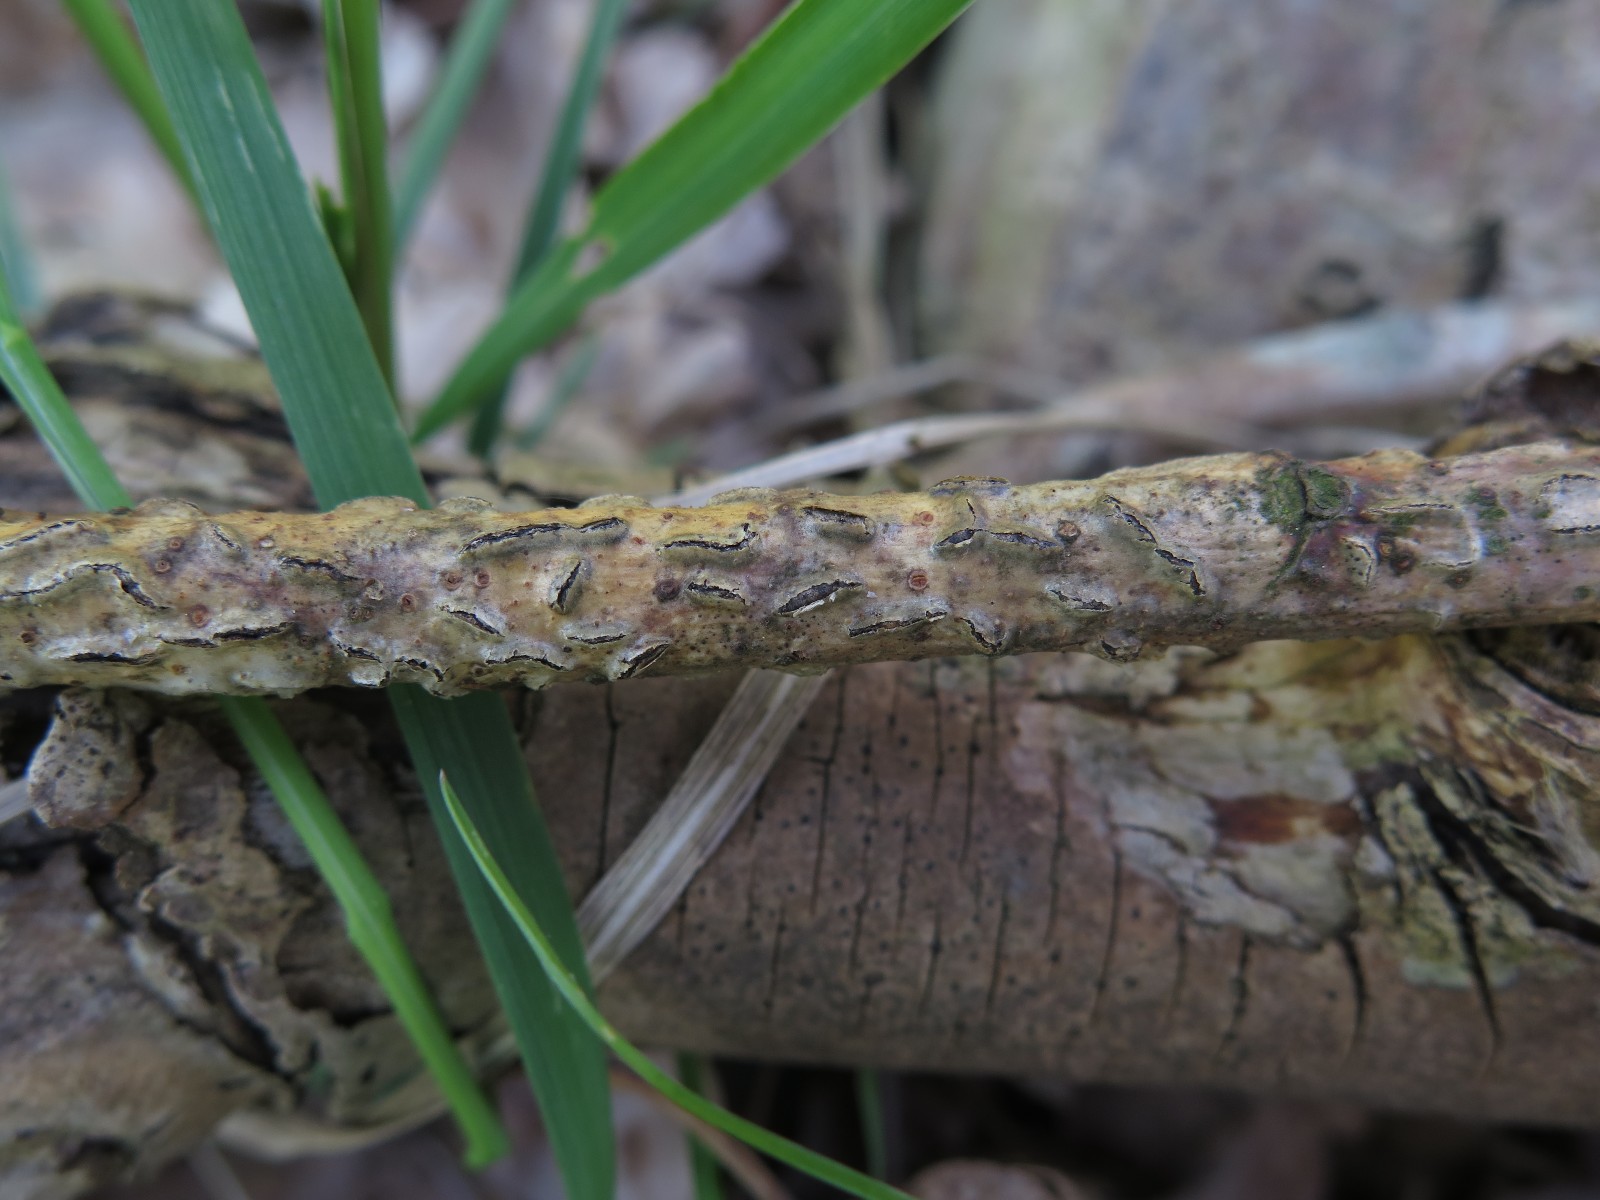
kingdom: Fungi
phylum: Ascomycota
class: Leotiomycetes
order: Rhytismatales
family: Rhytismataceae
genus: Colpoma
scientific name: Colpoma quercinum
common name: ege-sprækkeskive
